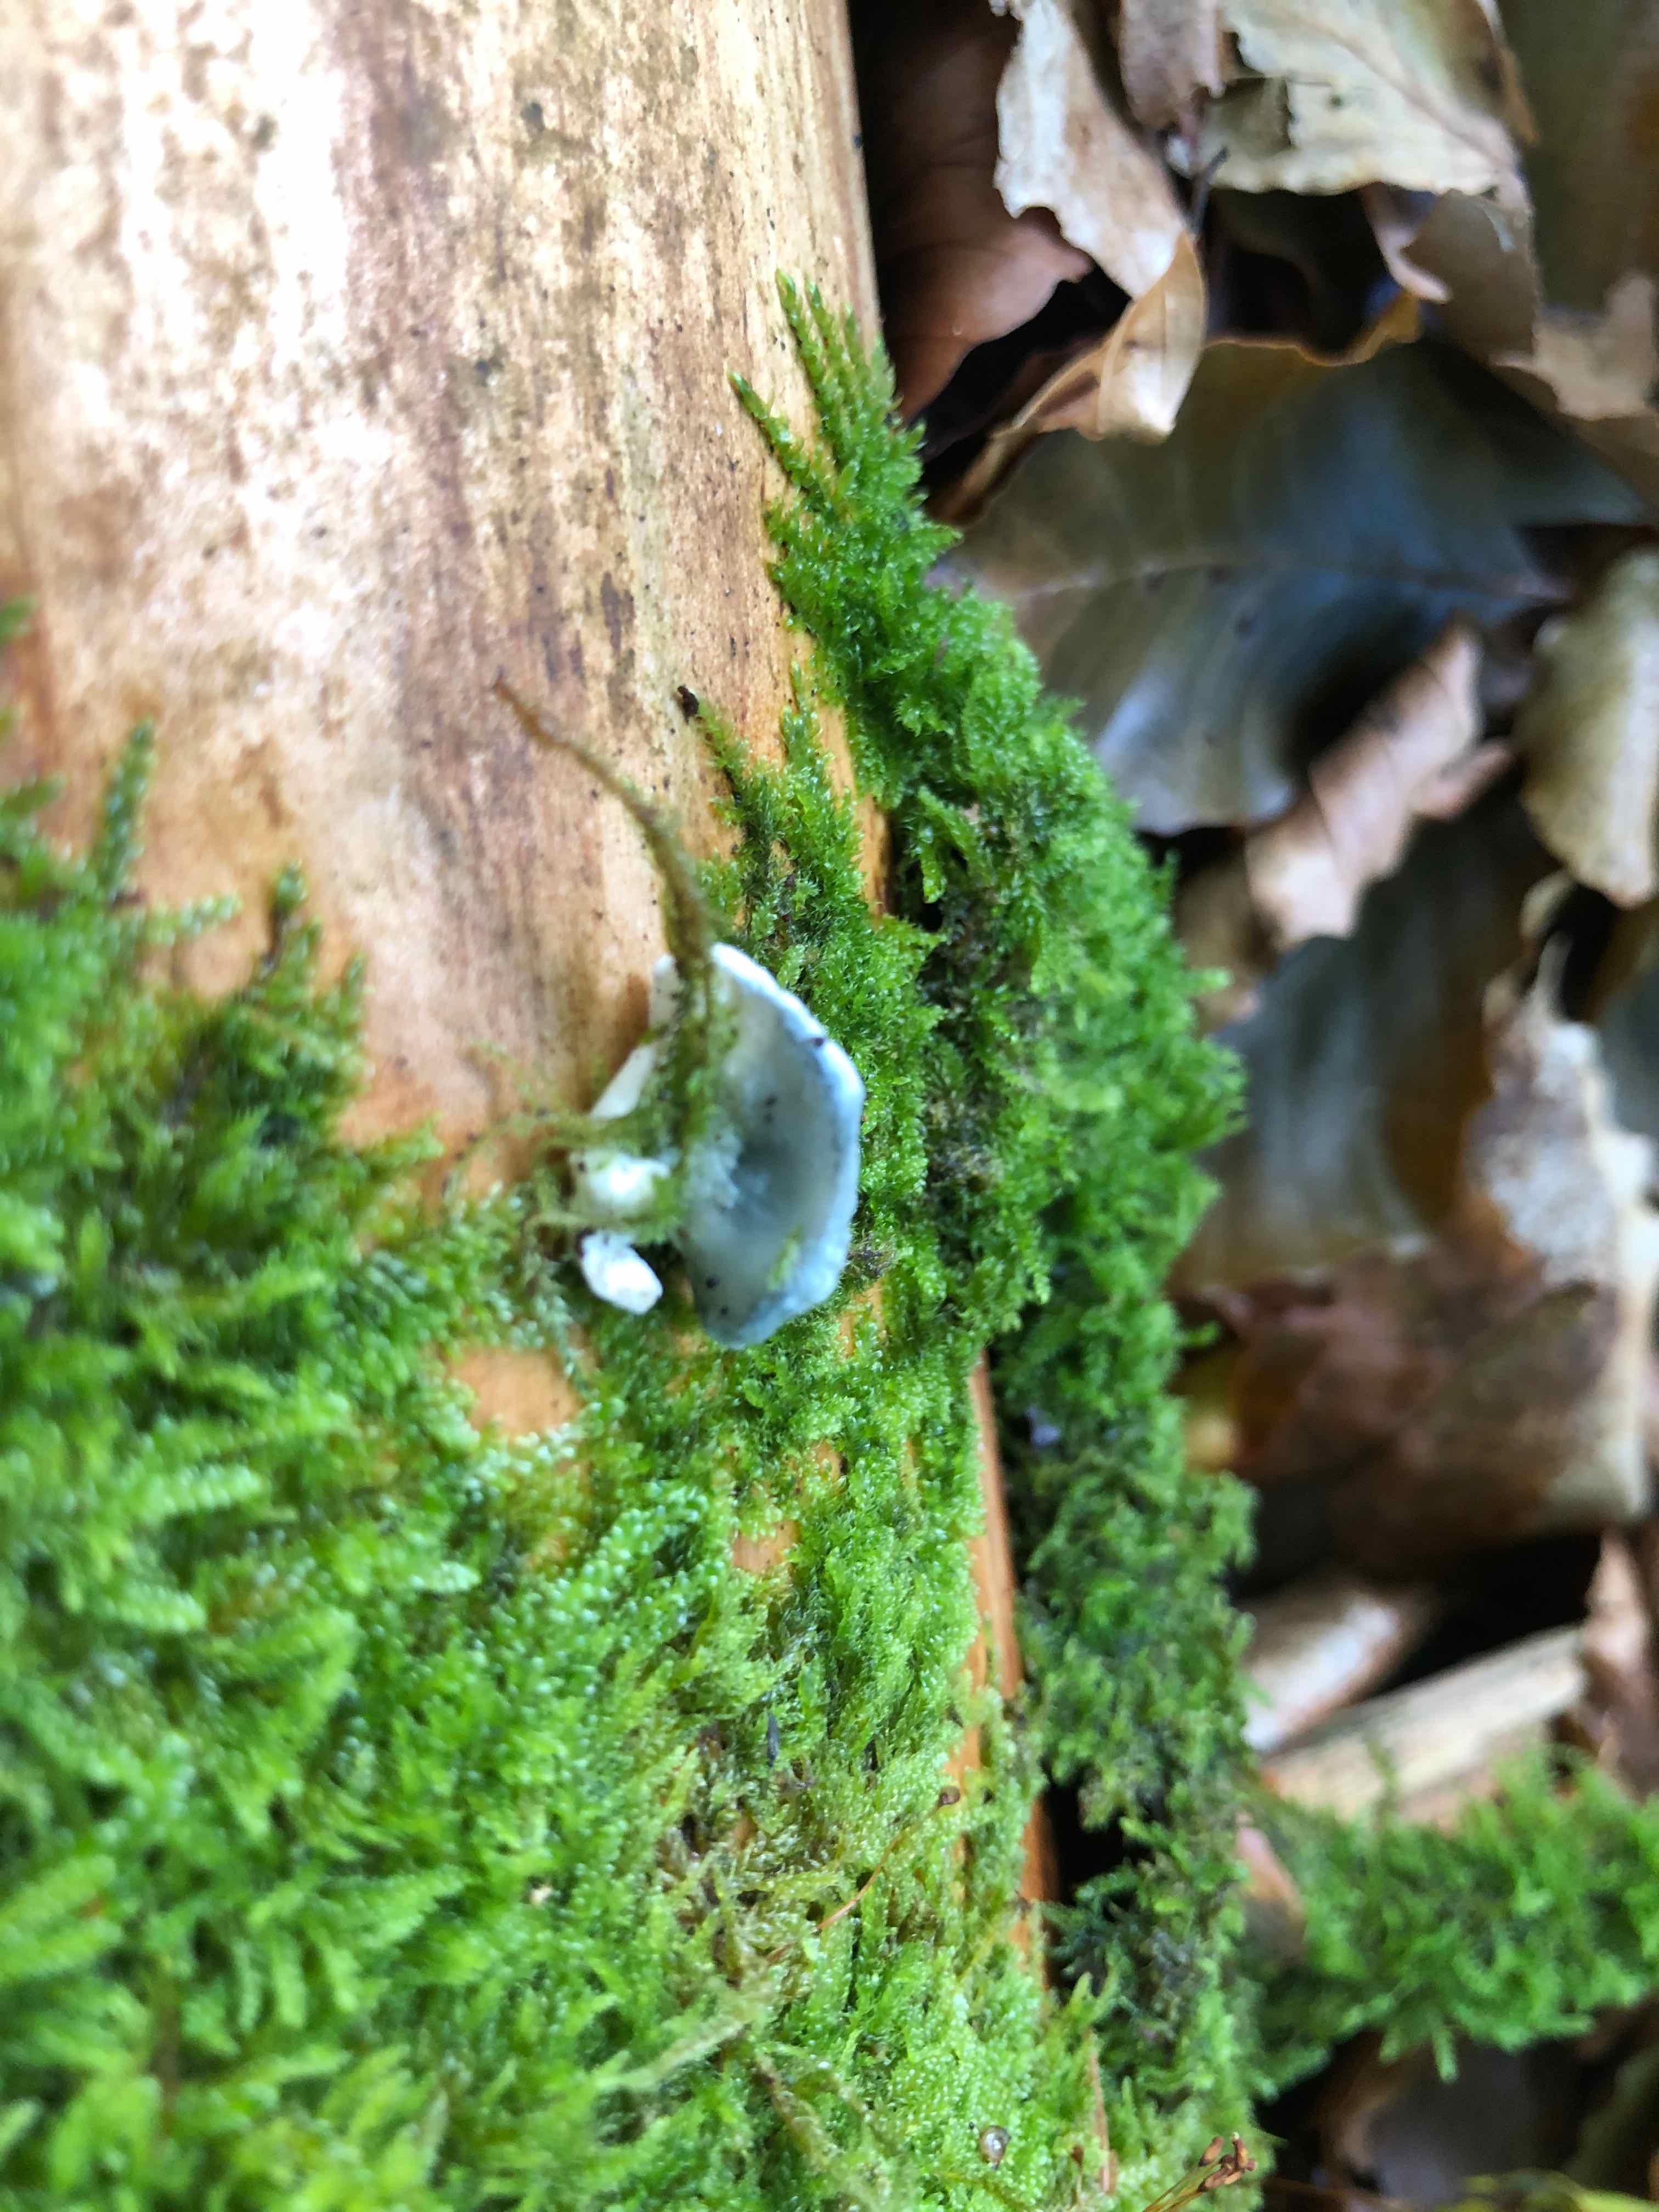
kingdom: Fungi
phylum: Basidiomycota
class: Agaricomycetes
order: Polyporales
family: Polyporaceae
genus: Cyanosporus
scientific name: Cyanosporus caesius
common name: blålig kødporesvamp
